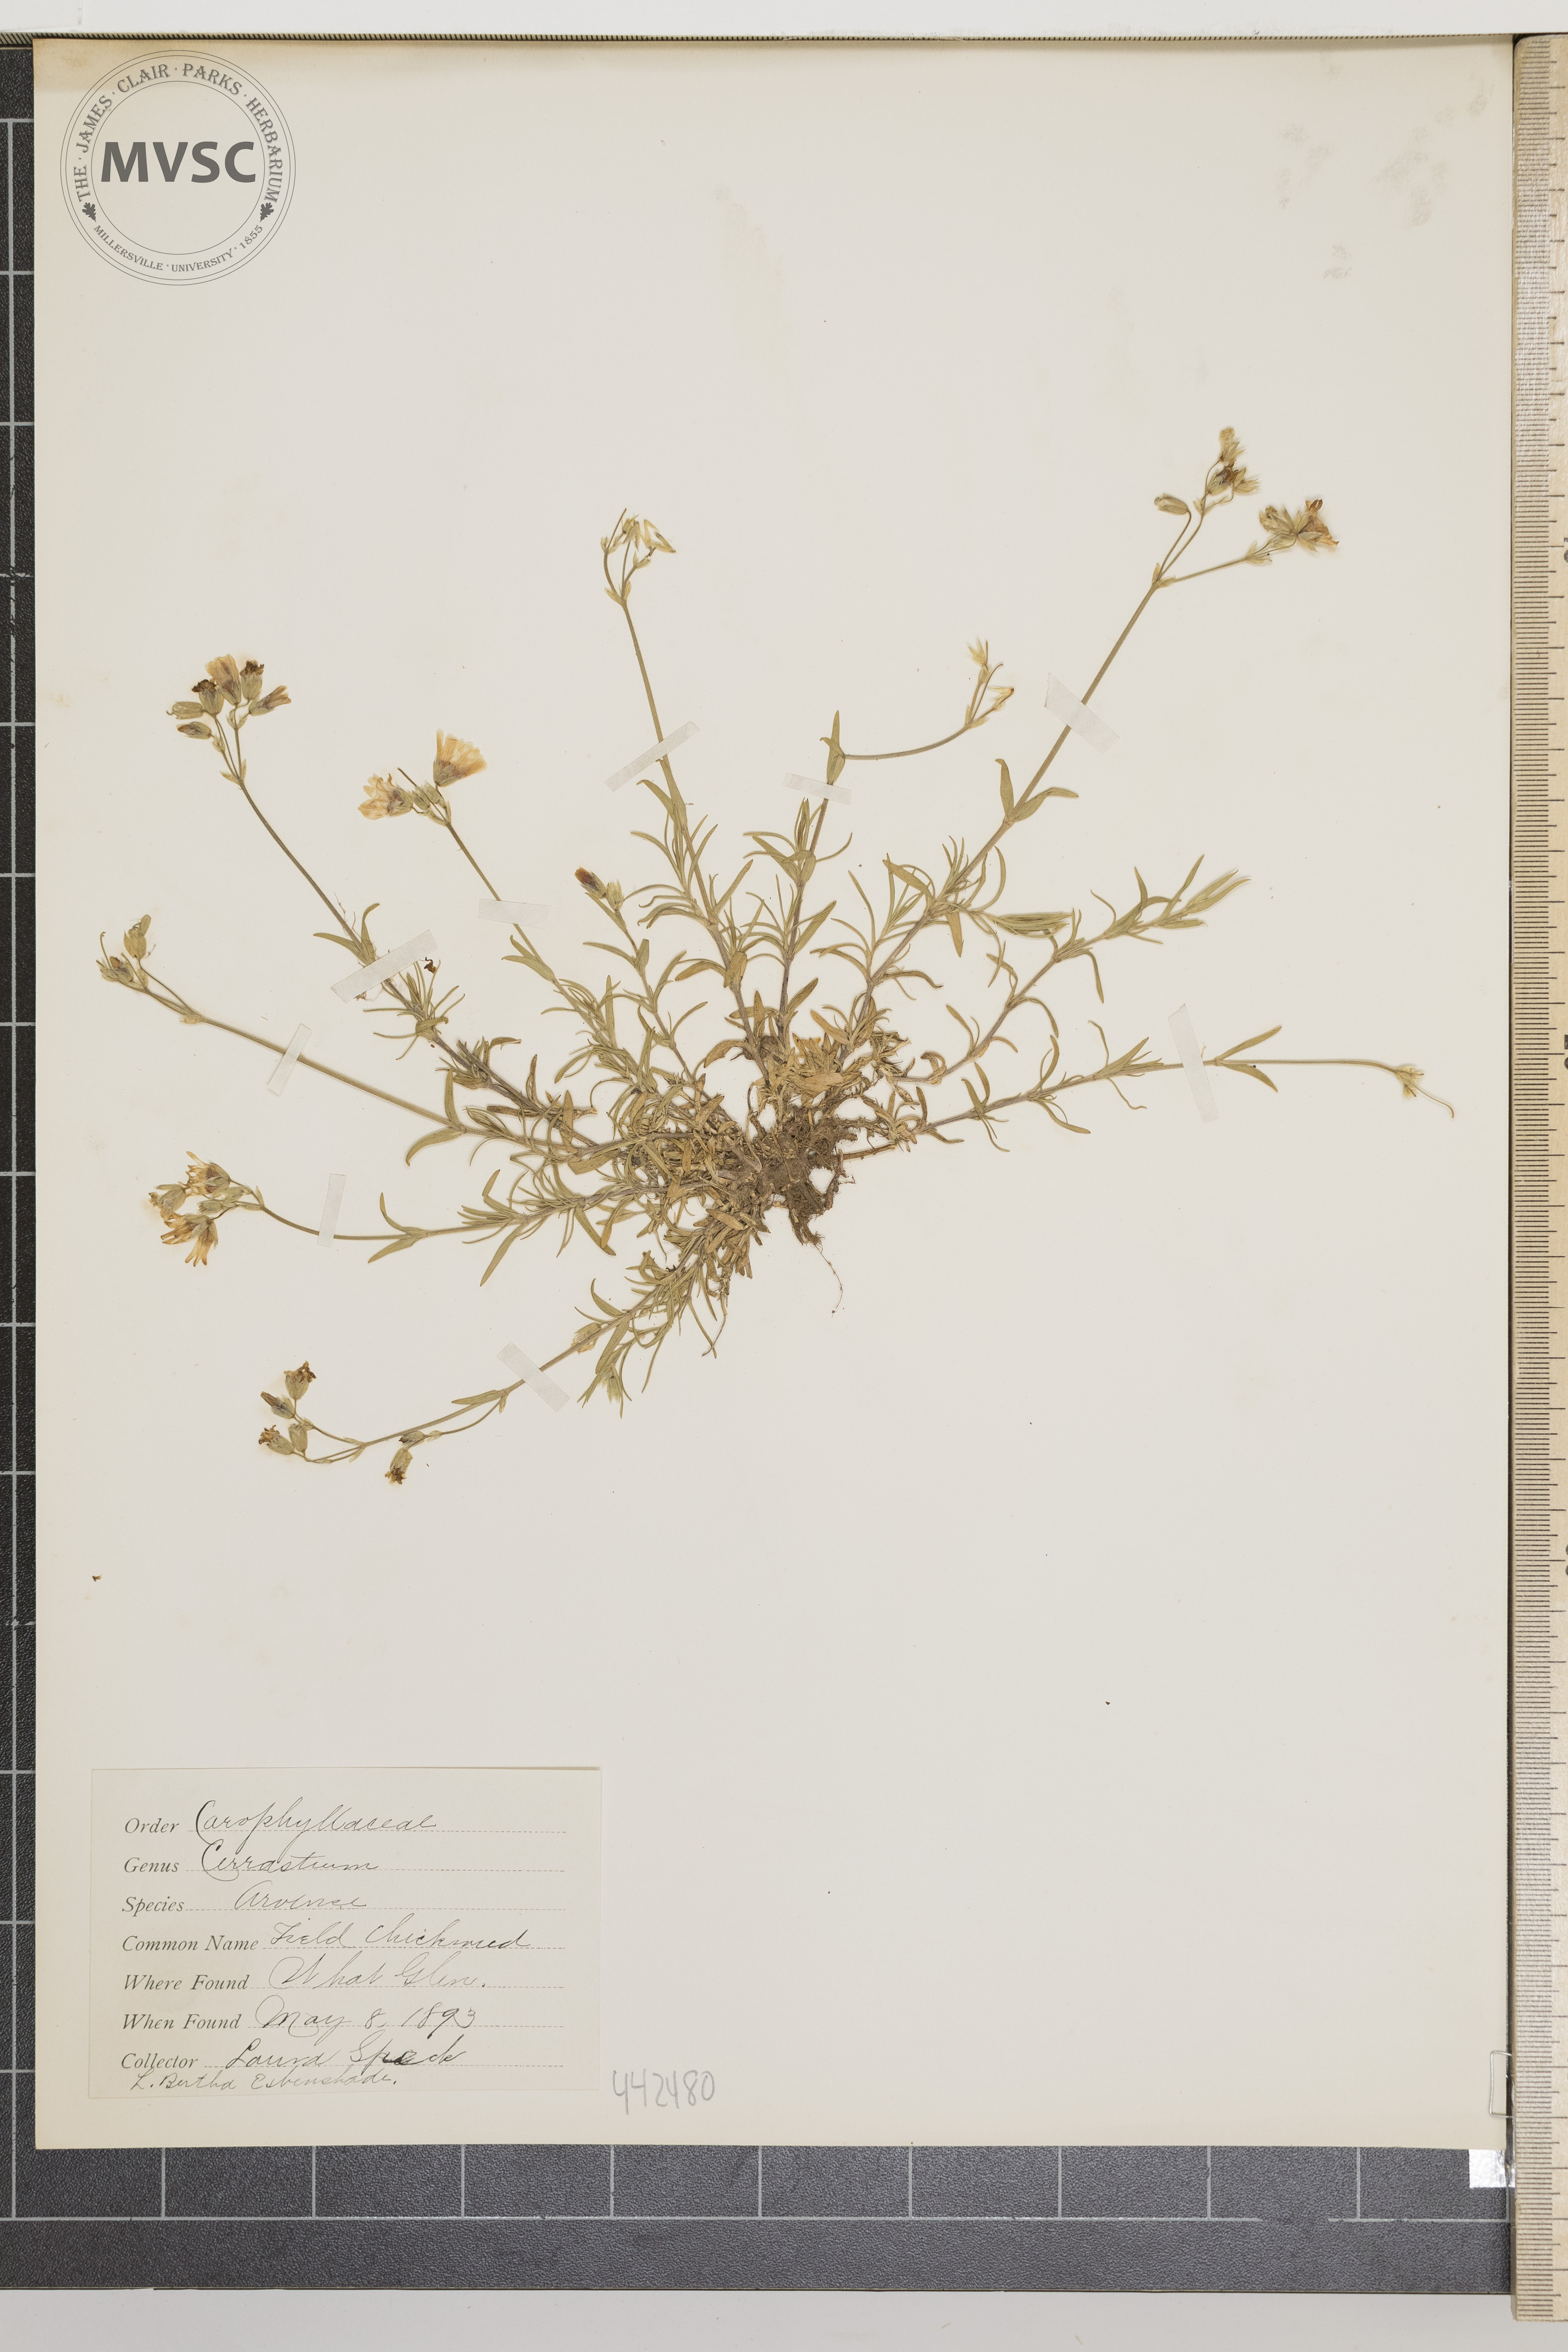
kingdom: Plantae
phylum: Tracheophyta
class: Magnoliopsida
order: Caryophyllales
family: Caryophyllaceae
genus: Cerastium
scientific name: Cerastium arvense
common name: Field chickweed
